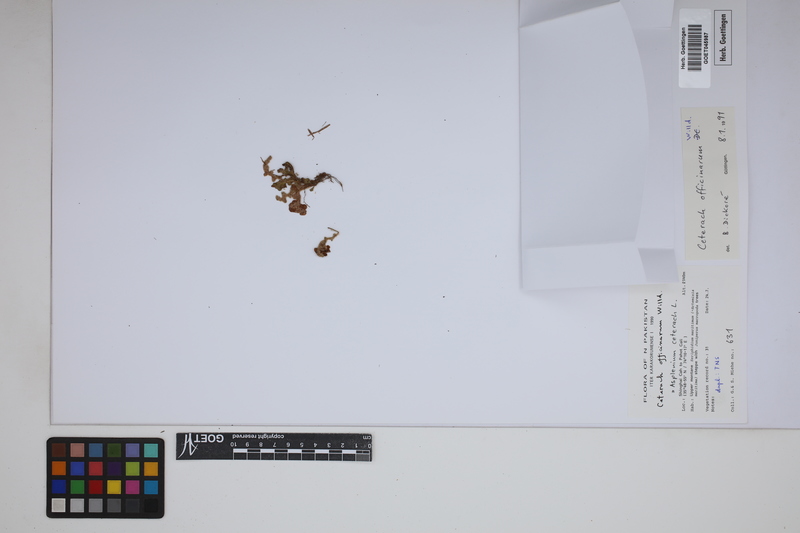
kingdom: Plantae
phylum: Tracheophyta
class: Polypodiopsida
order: Polypodiales
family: Aspleniaceae
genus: Asplenium
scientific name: Asplenium ceterach
